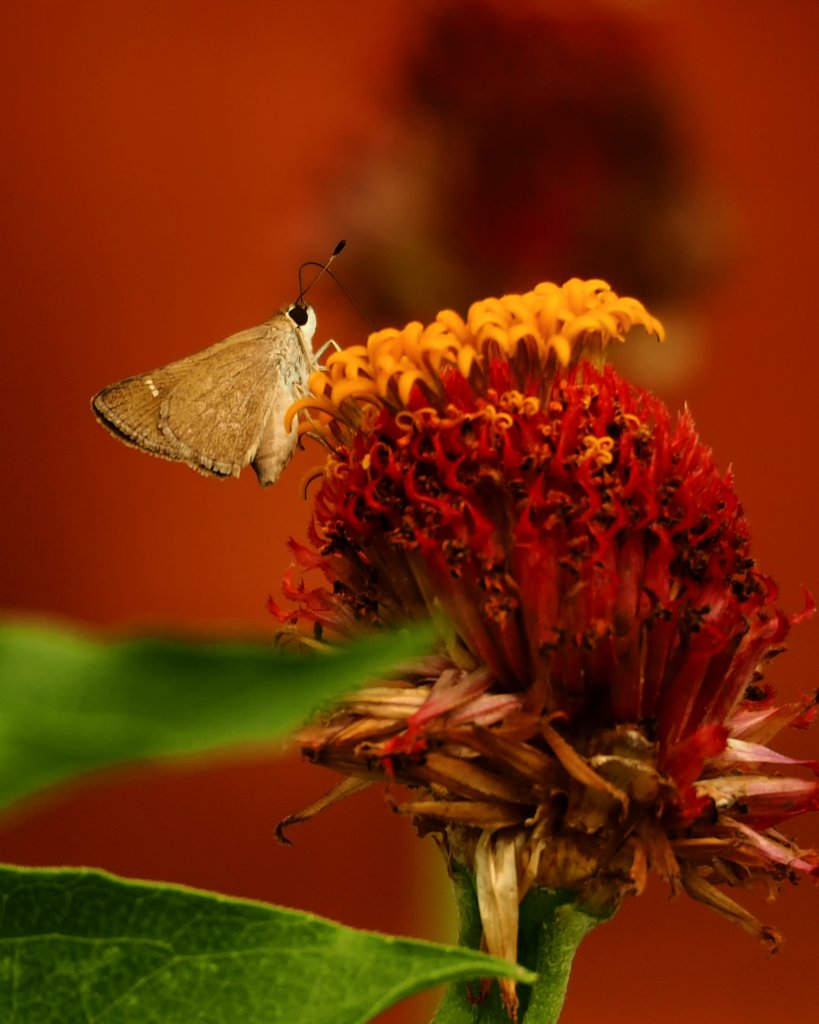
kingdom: Animalia
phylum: Arthropoda
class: Insecta
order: Lepidoptera
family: Hesperiidae
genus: Vernia
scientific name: Vernia verna
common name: Little Glassywing
